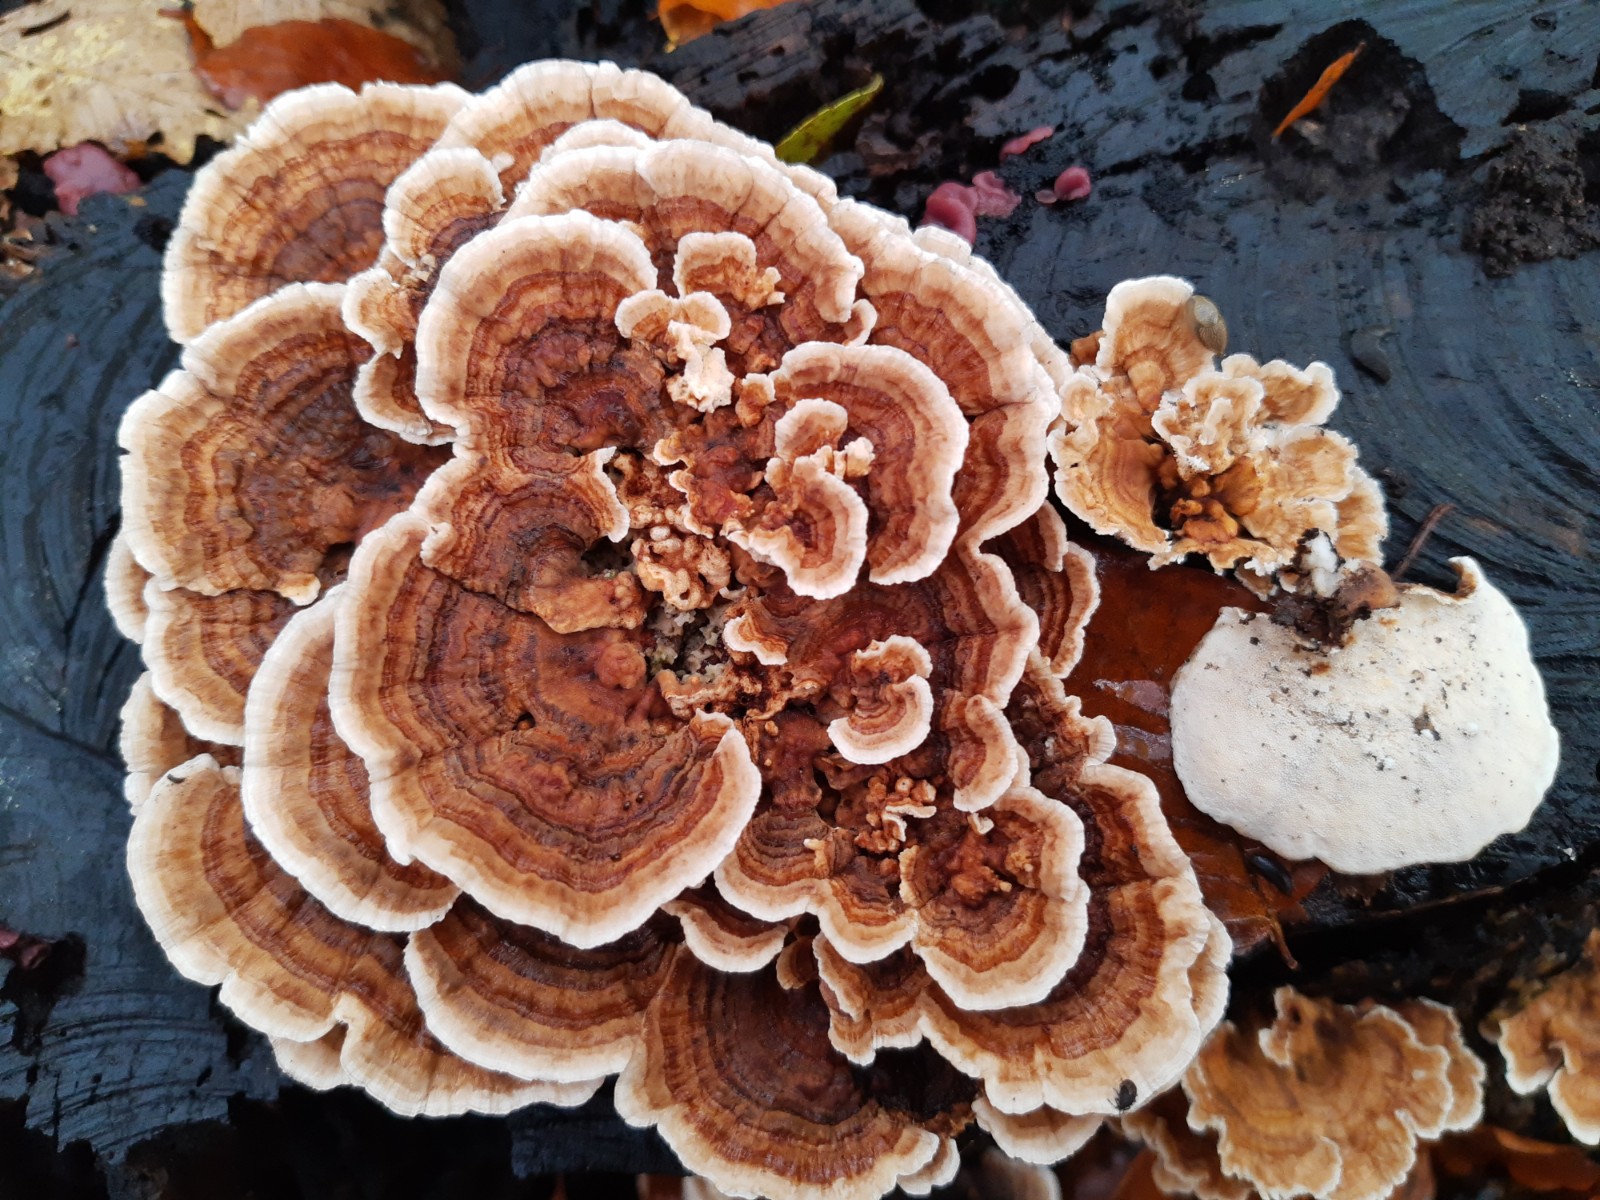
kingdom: Fungi
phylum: Basidiomycota
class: Agaricomycetes
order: Polyporales
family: Polyporaceae
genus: Trametes
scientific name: Trametes versicolor
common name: broget læderporesvamp
